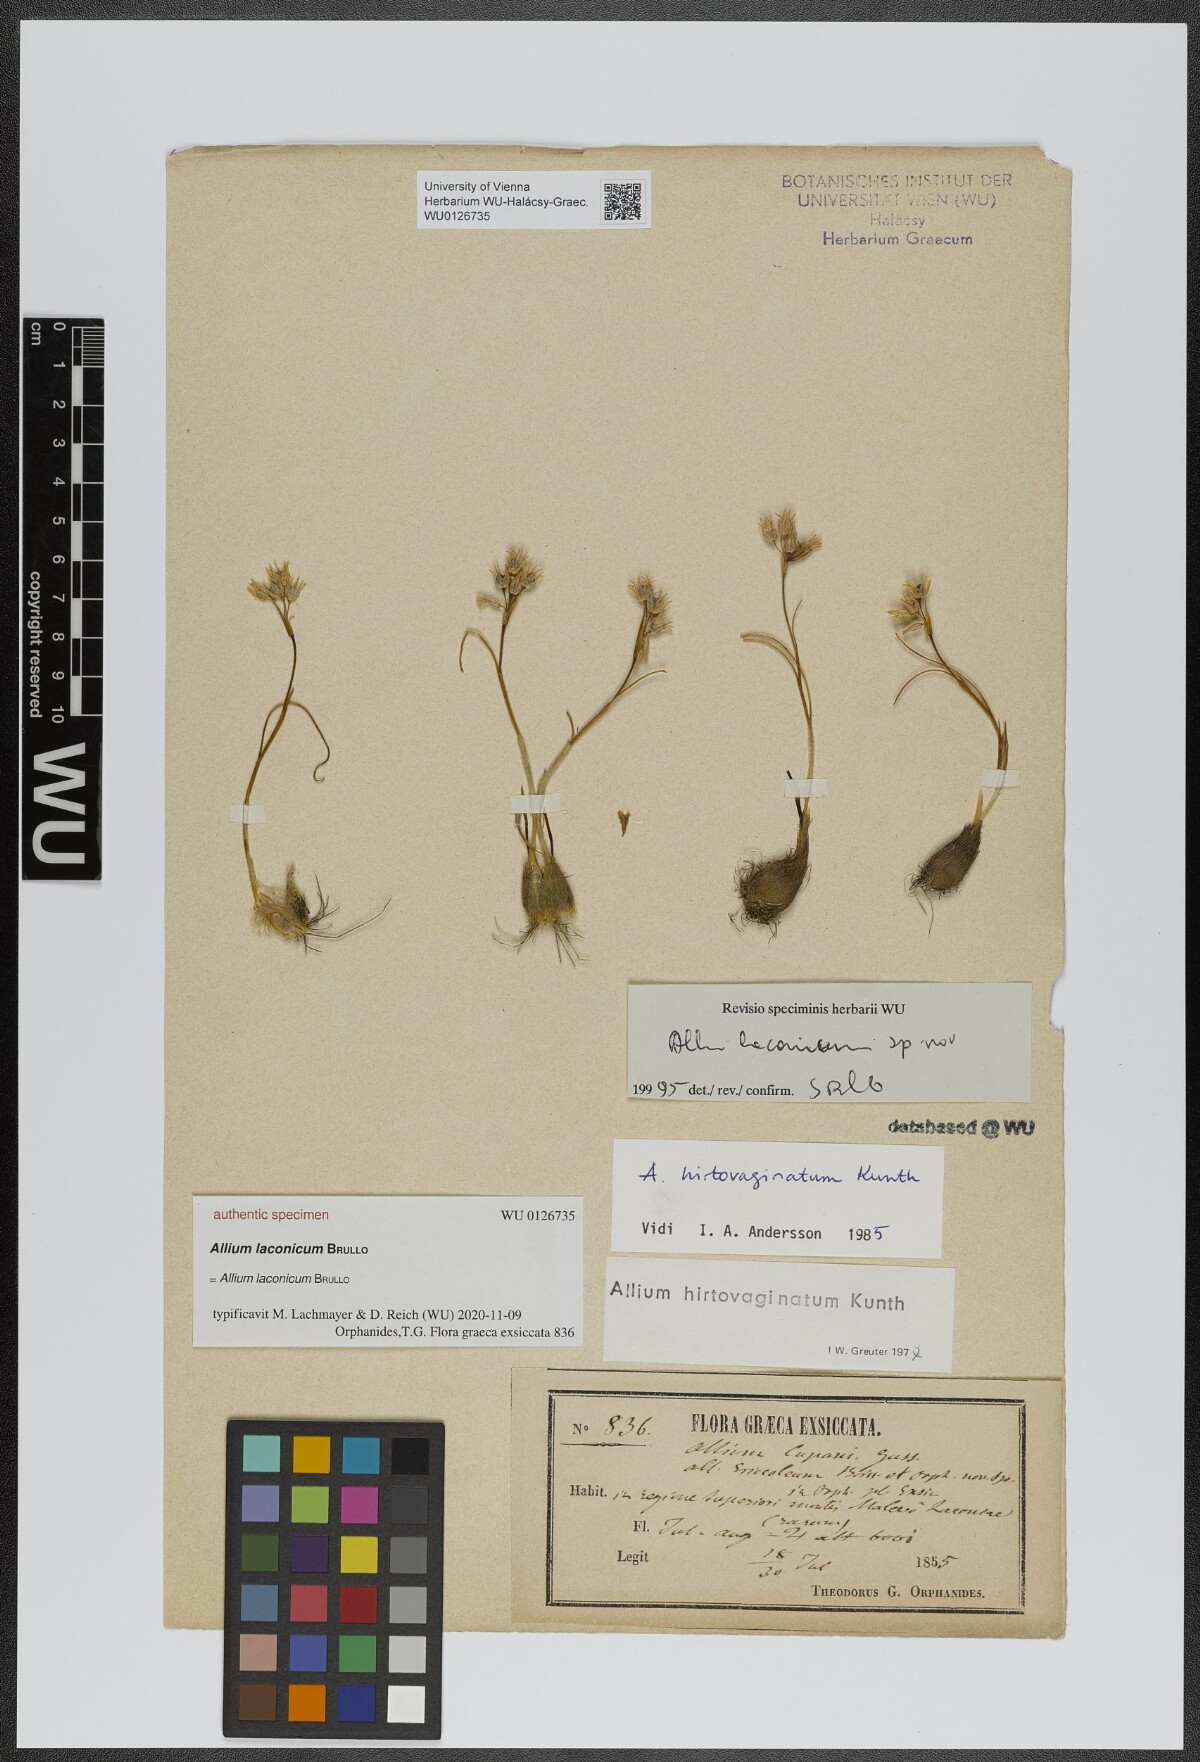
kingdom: Plantae
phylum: Tracheophyta
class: Liliopsida
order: Asparagales
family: Amaryllidaceae
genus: Allium
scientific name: Allium
